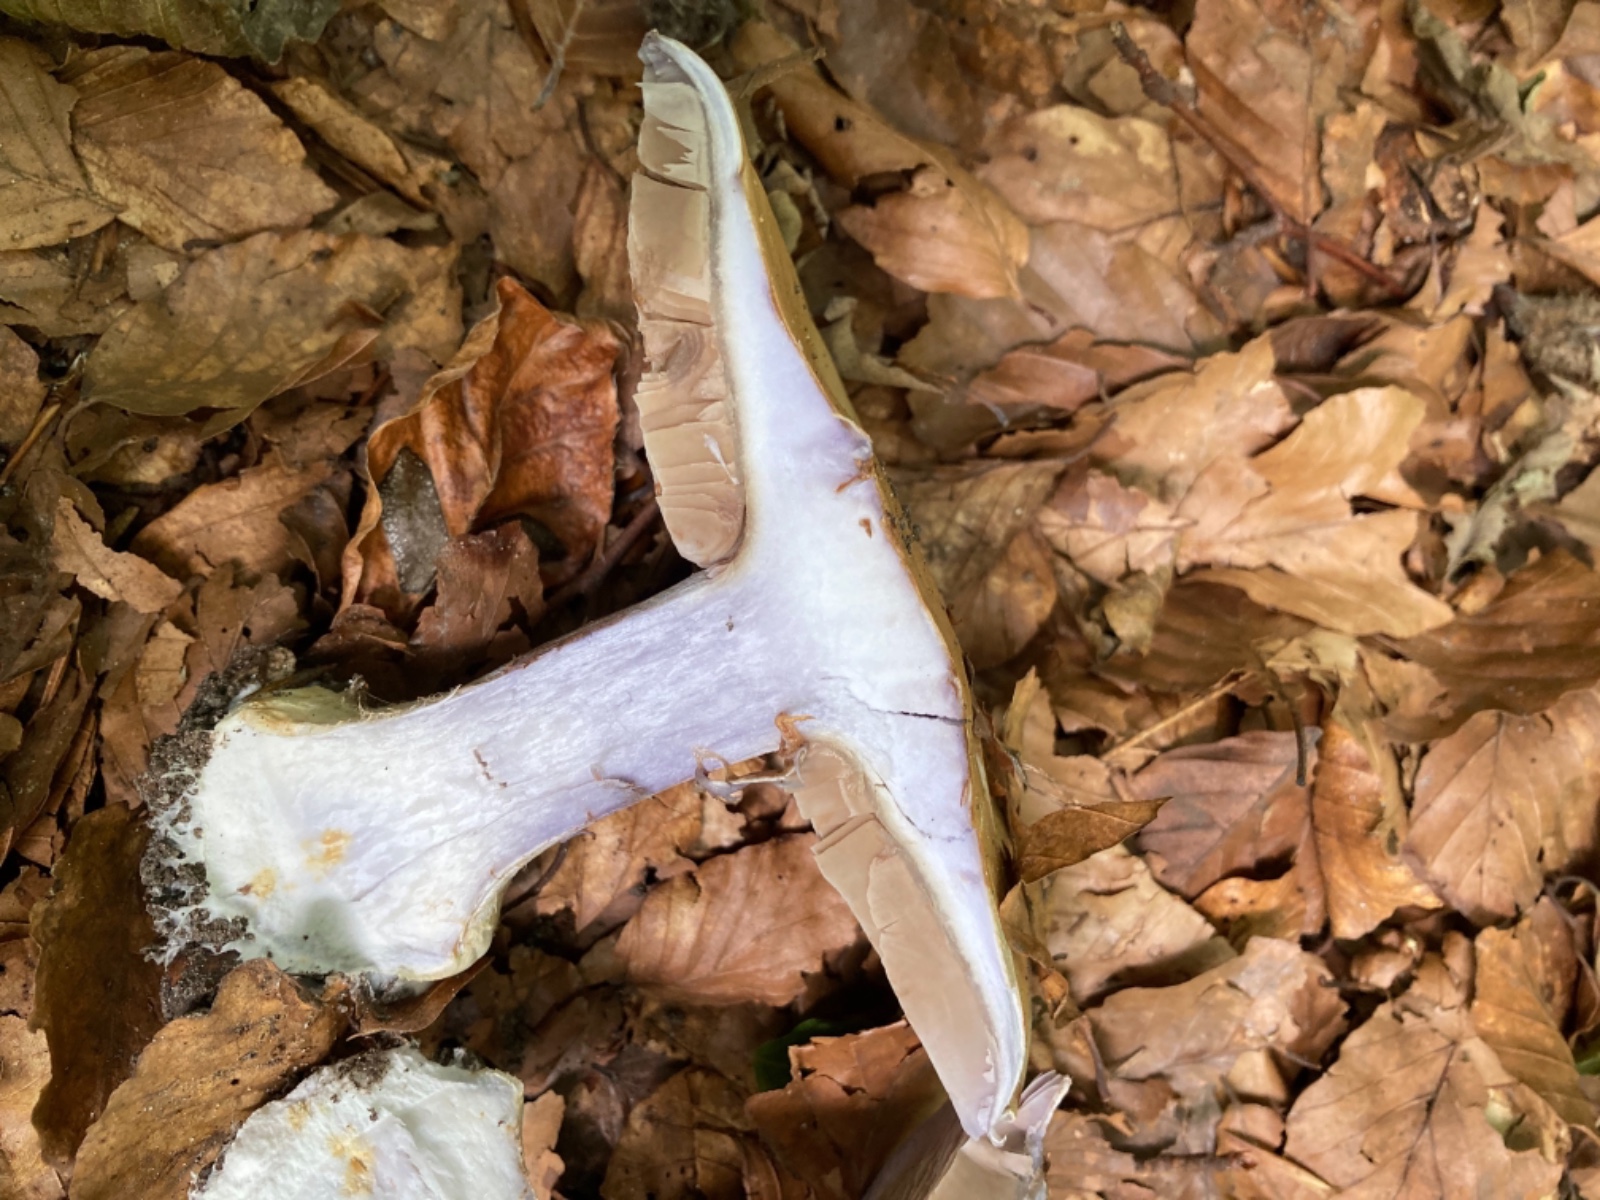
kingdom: Fungi
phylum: Basidiomycota
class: Agaricomycetes
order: Agaricales
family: Cortinariaceae
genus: Cortinarius
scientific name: Cortinarius anserinus
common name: bøge-slørhat
